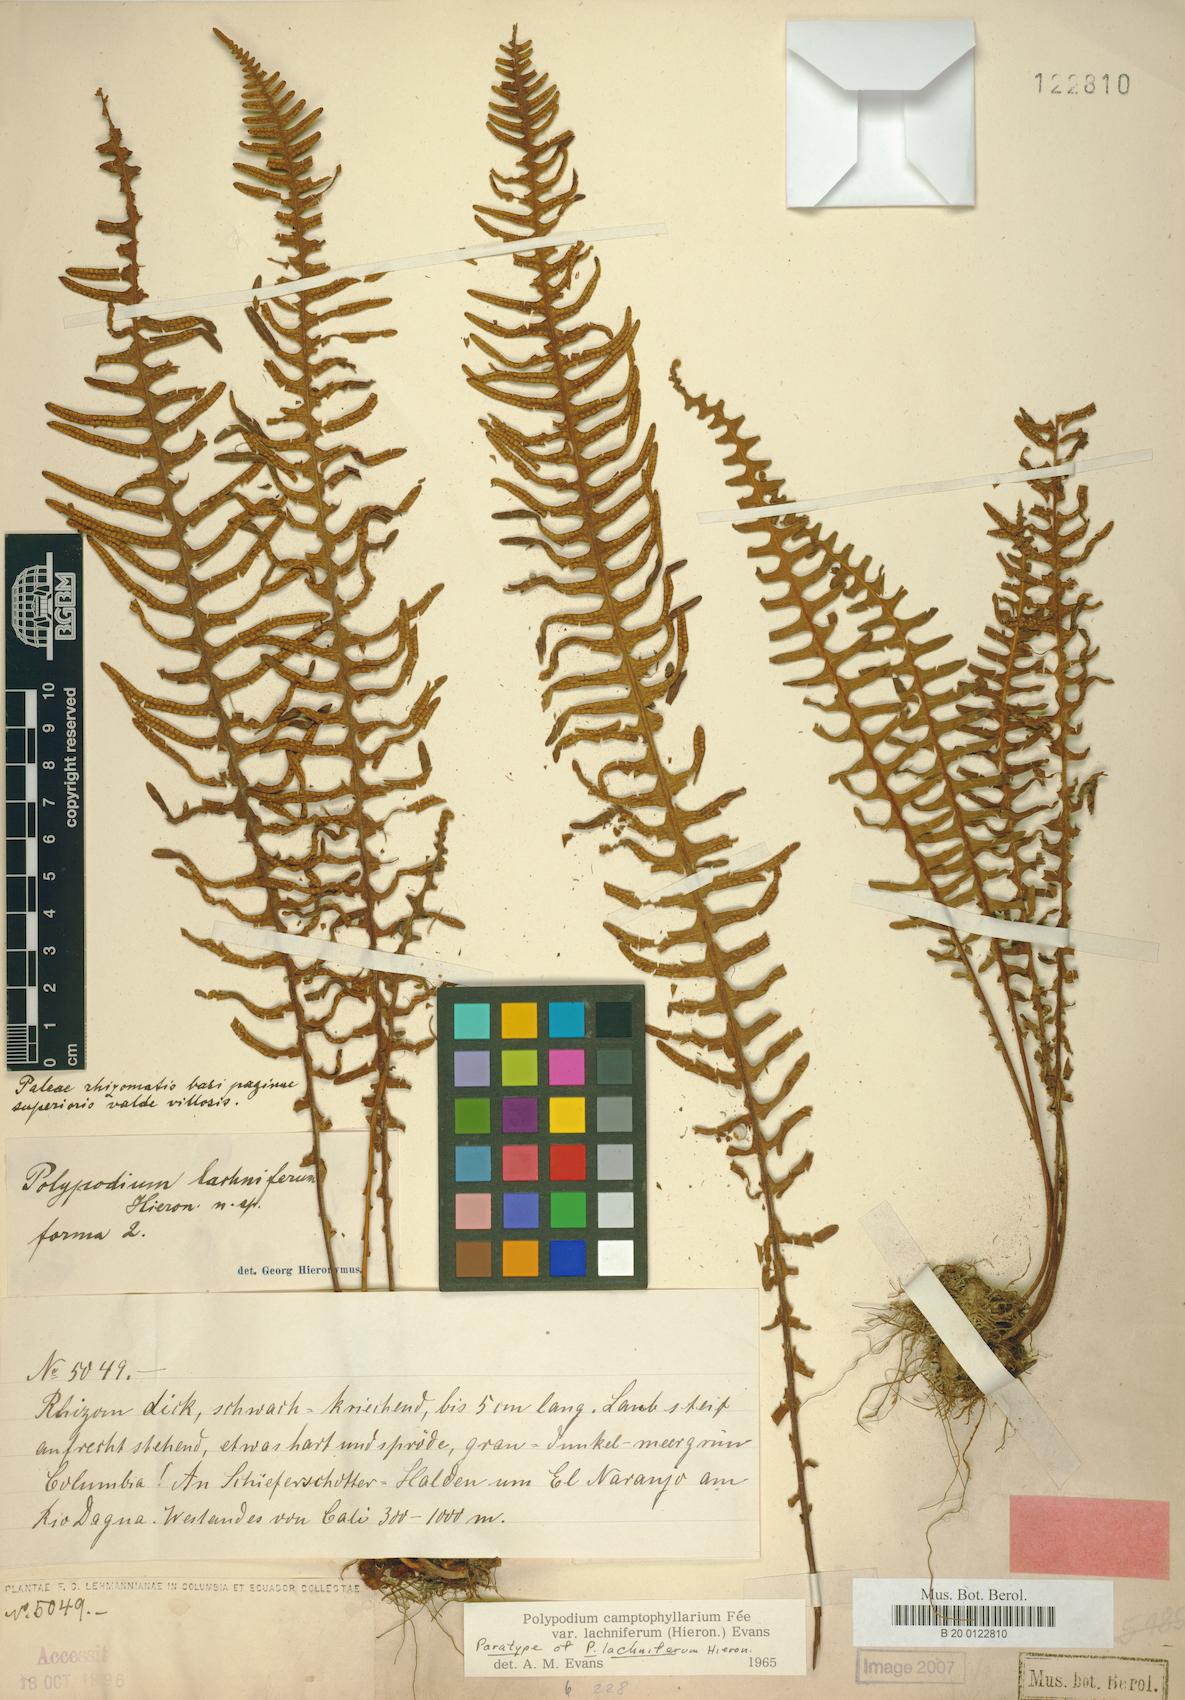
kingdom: Plantae
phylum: Tracheophyta
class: Polypodiopsida
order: Polypodiales
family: Polypodiaceae
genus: Pecluma
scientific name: Pecluma camptophyllaria
